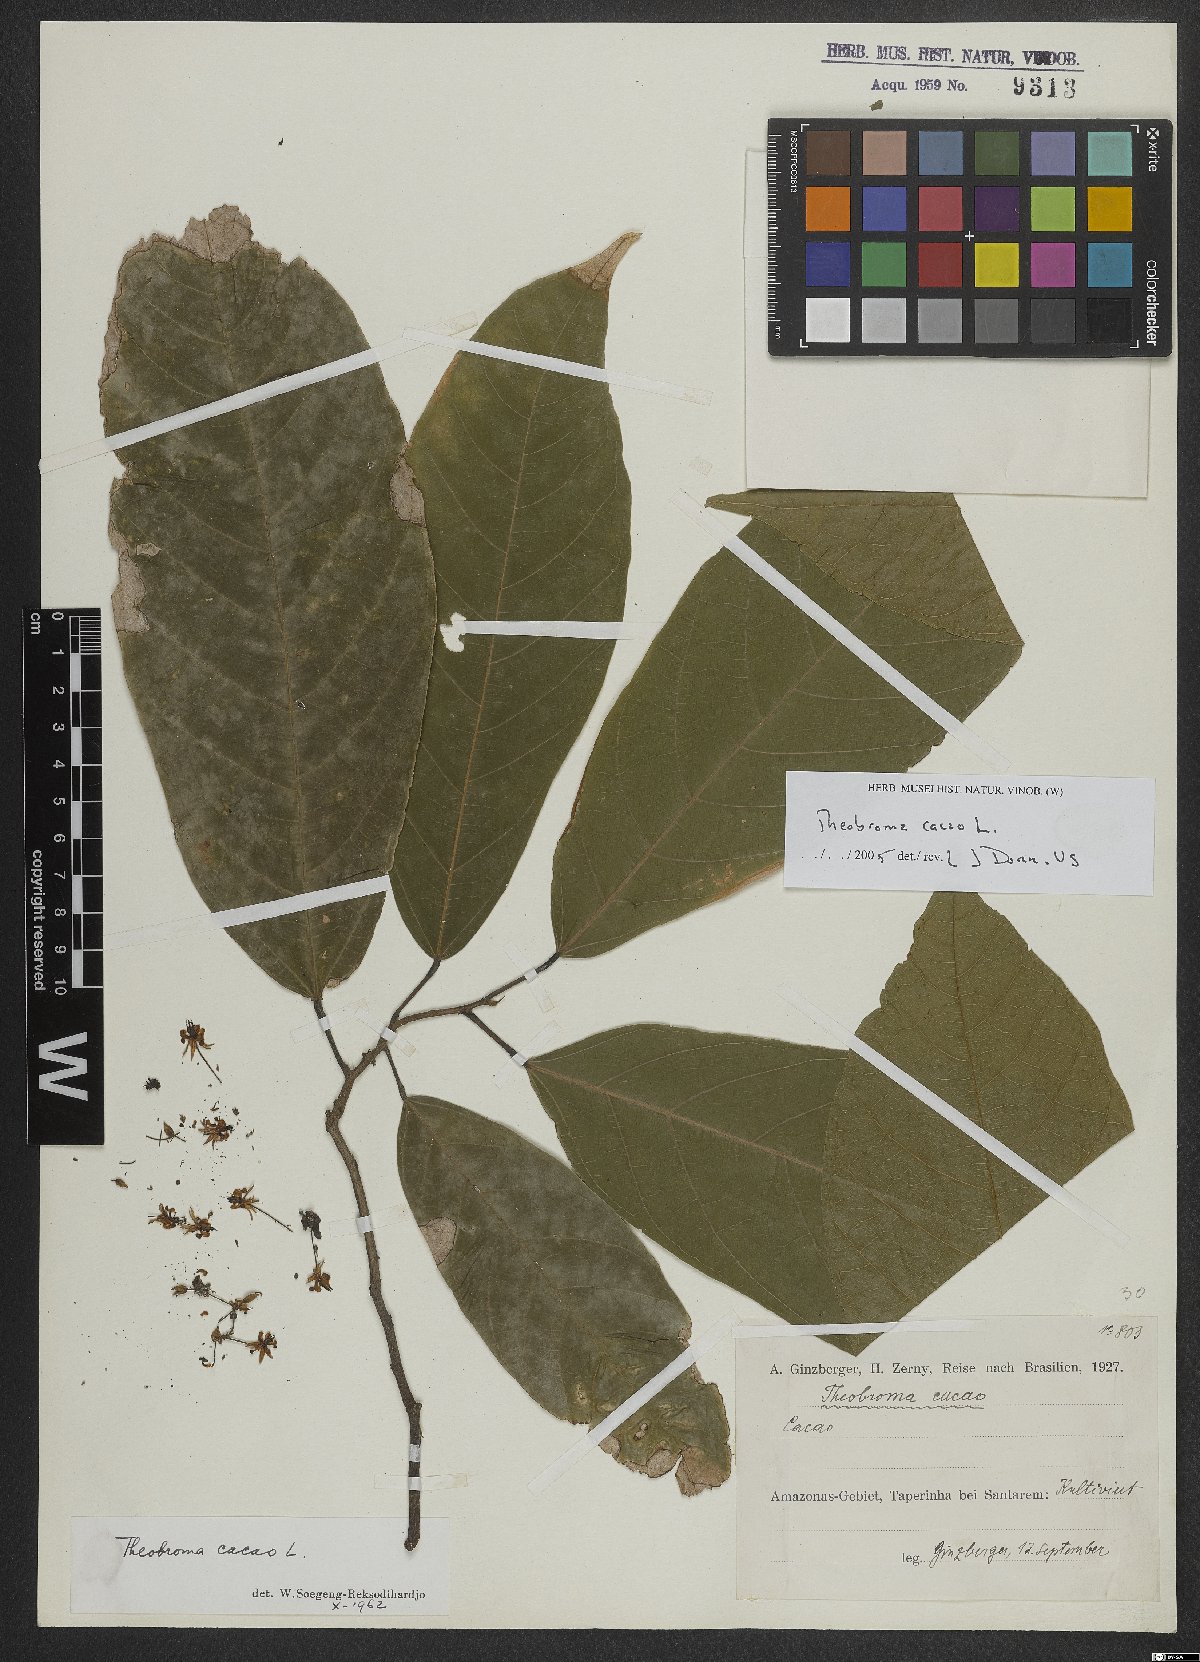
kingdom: Plantae
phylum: Tracheophyta
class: Magnoliopsida
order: Malvales
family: Malvaceae
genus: Theobroma
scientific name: Theobroma cacao
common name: Cocoa
